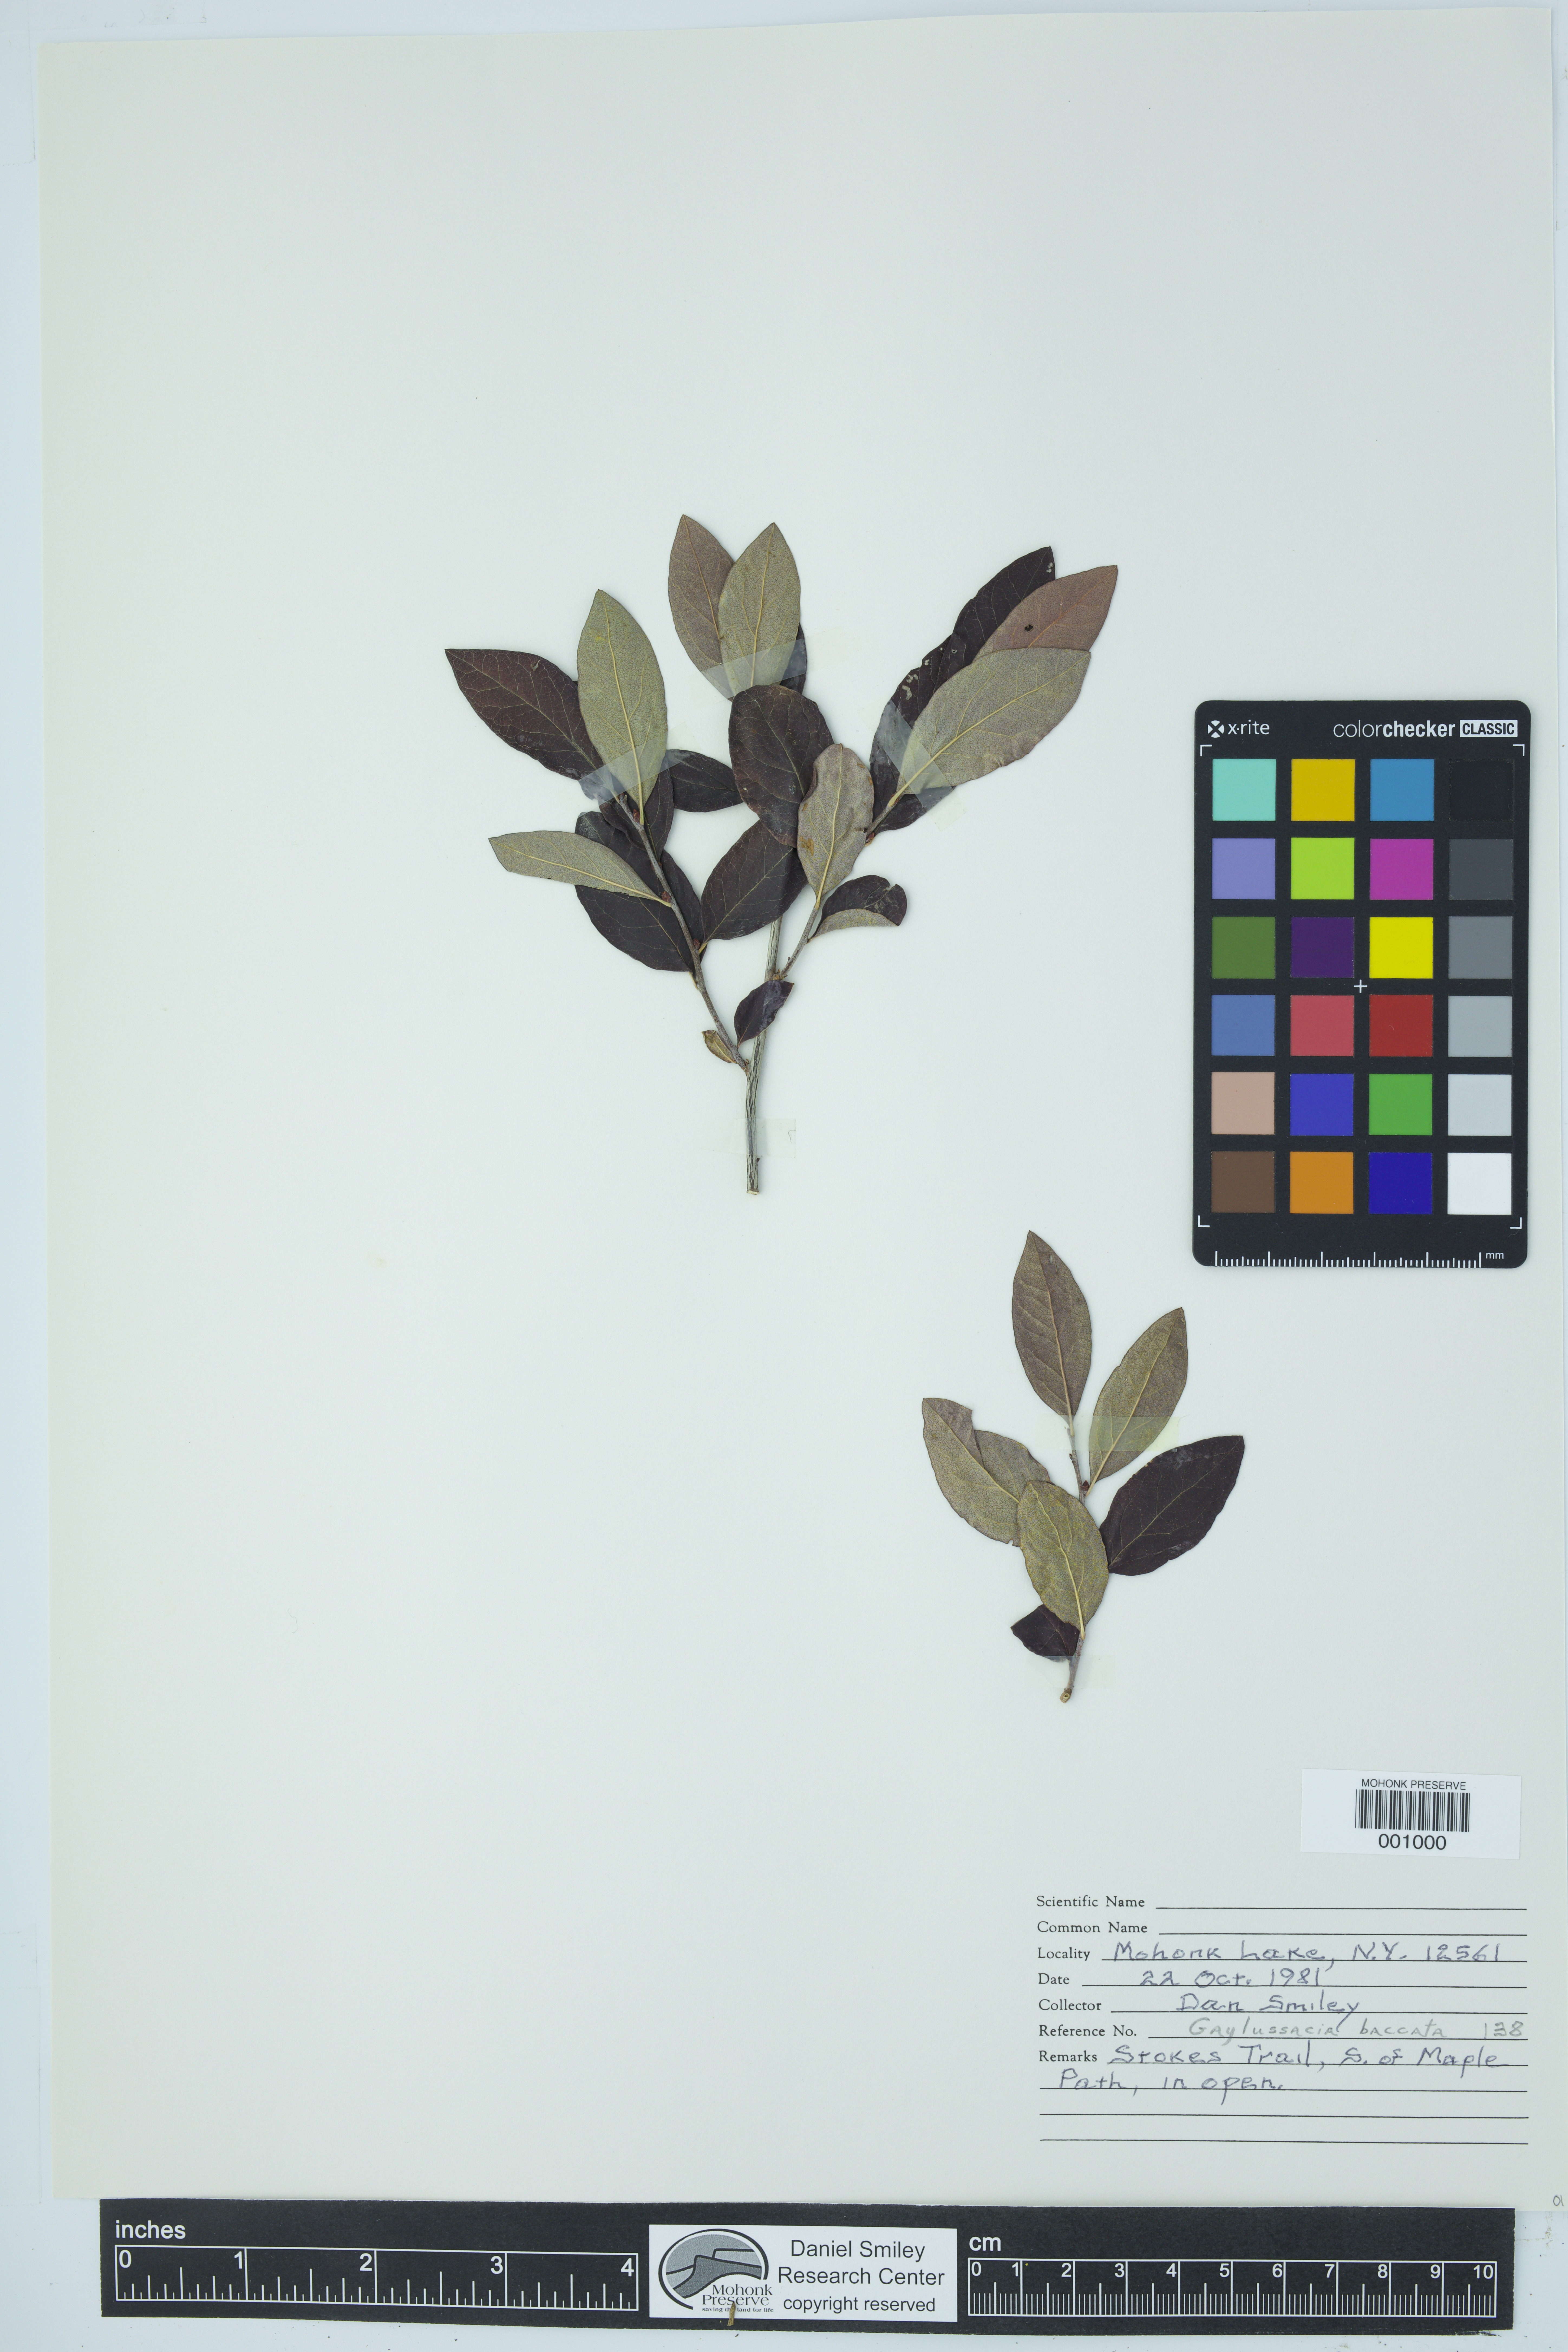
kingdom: Plantae
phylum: Tracheophyta
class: Magnoliopsida
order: Ericales
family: Ericaceae
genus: Gaylussacia
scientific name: Gaylussacia baccata
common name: Black huckleberry
